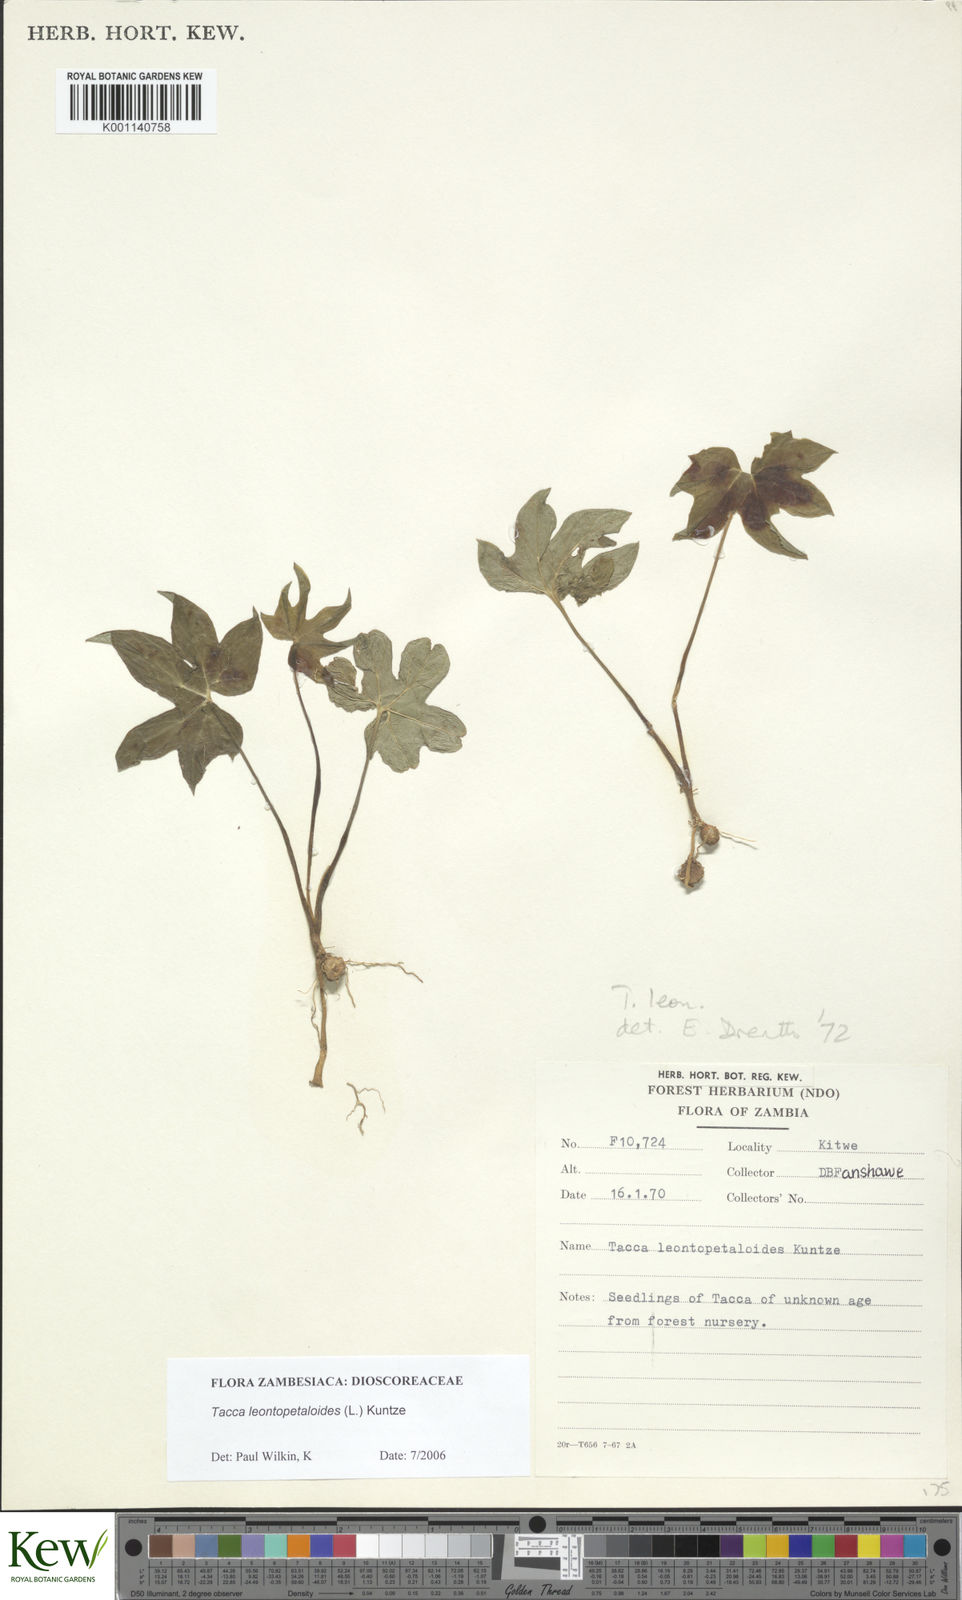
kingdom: Plantae
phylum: Tracheophyta
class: Liliopsida
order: Dioscoreales
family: Dioscoreaceae
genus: Tacca
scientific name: Tacca leontopetaloides
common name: Arrowroot
